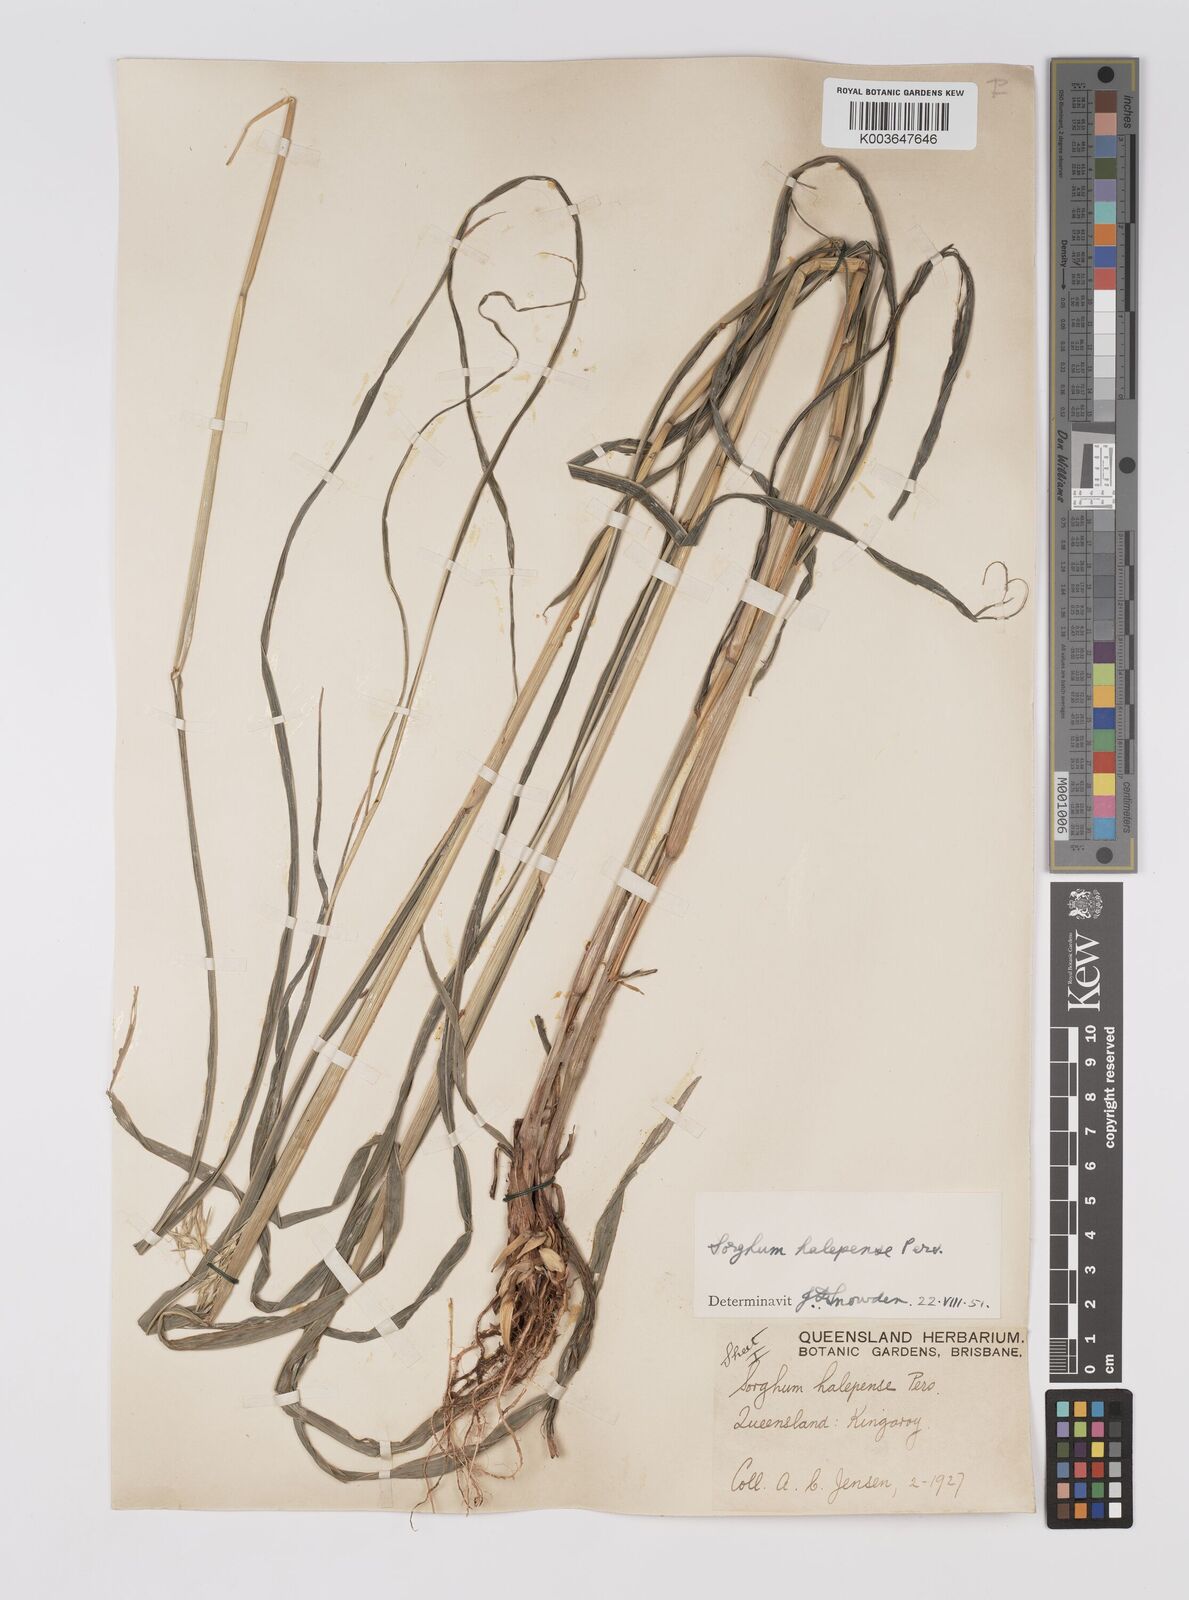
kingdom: Plantae
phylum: Tracheophyta
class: Liliopsida
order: Poales
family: Poaceae
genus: Sorghum
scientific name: Sorghum halepense
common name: Johnson-grass
